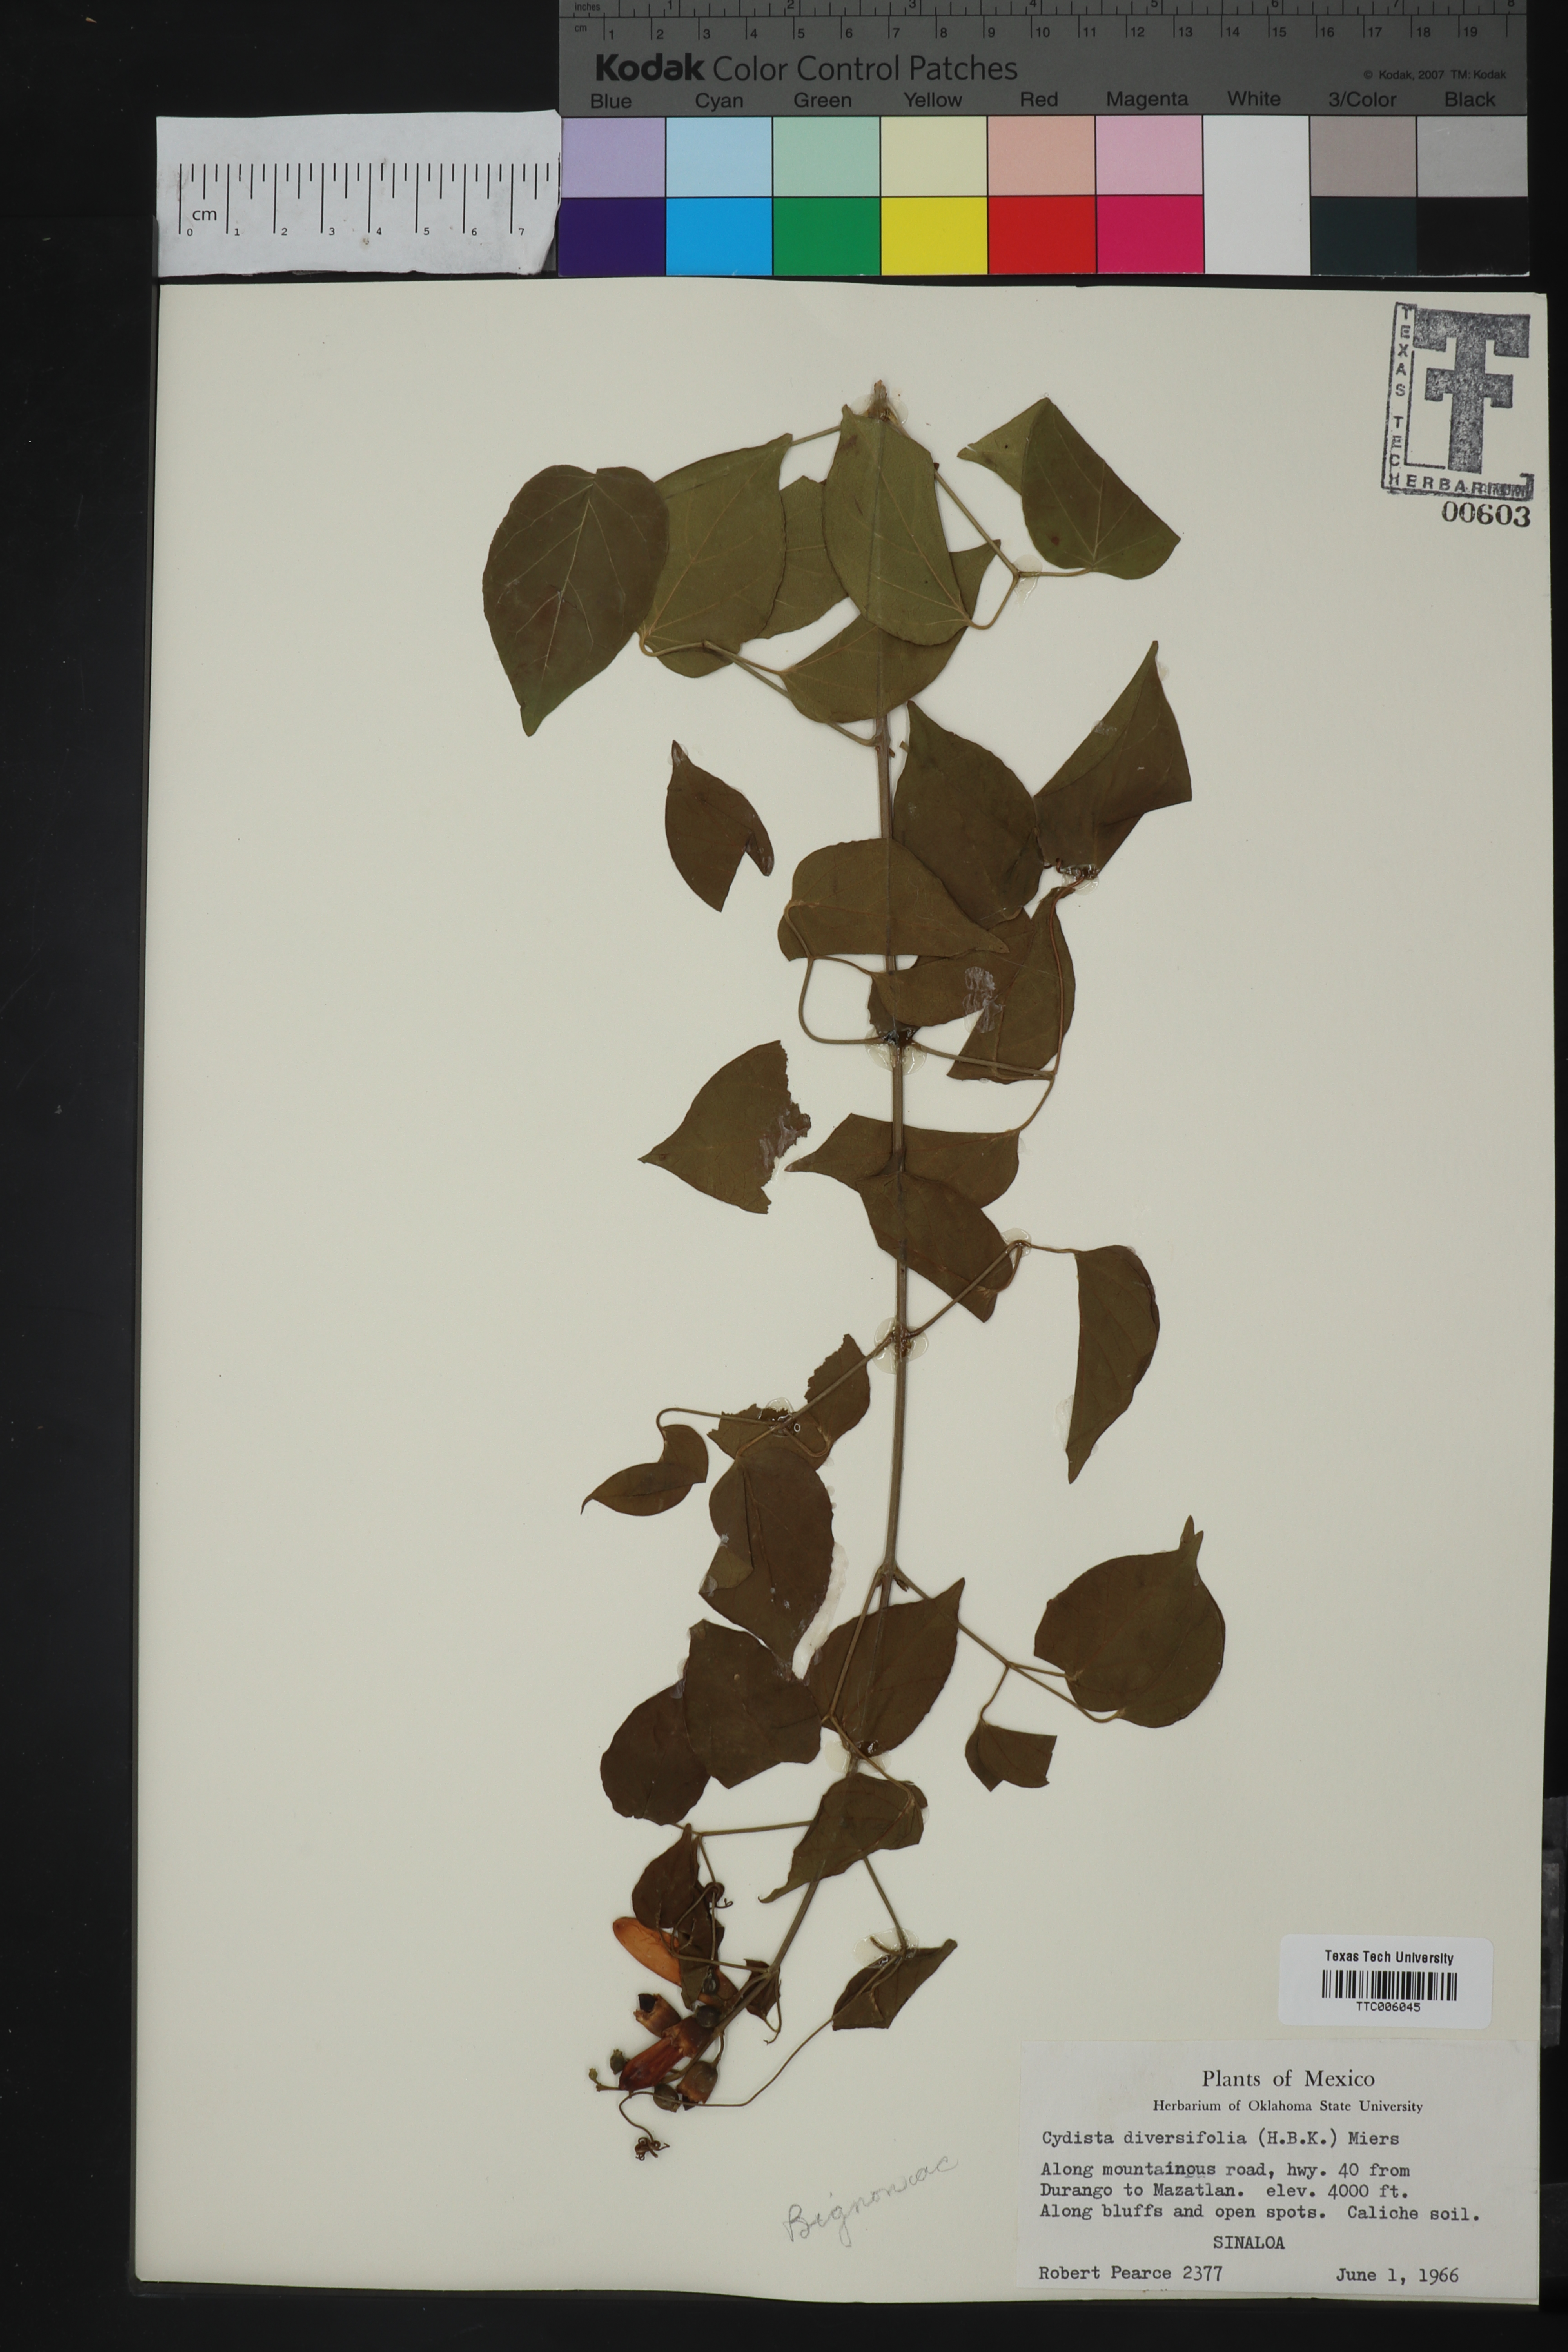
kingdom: Plantae
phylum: Tracheophyta
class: Magnoliopsida
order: Lamiales
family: Bignoniaceae
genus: Bignonia
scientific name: Bignonia diversifolia
